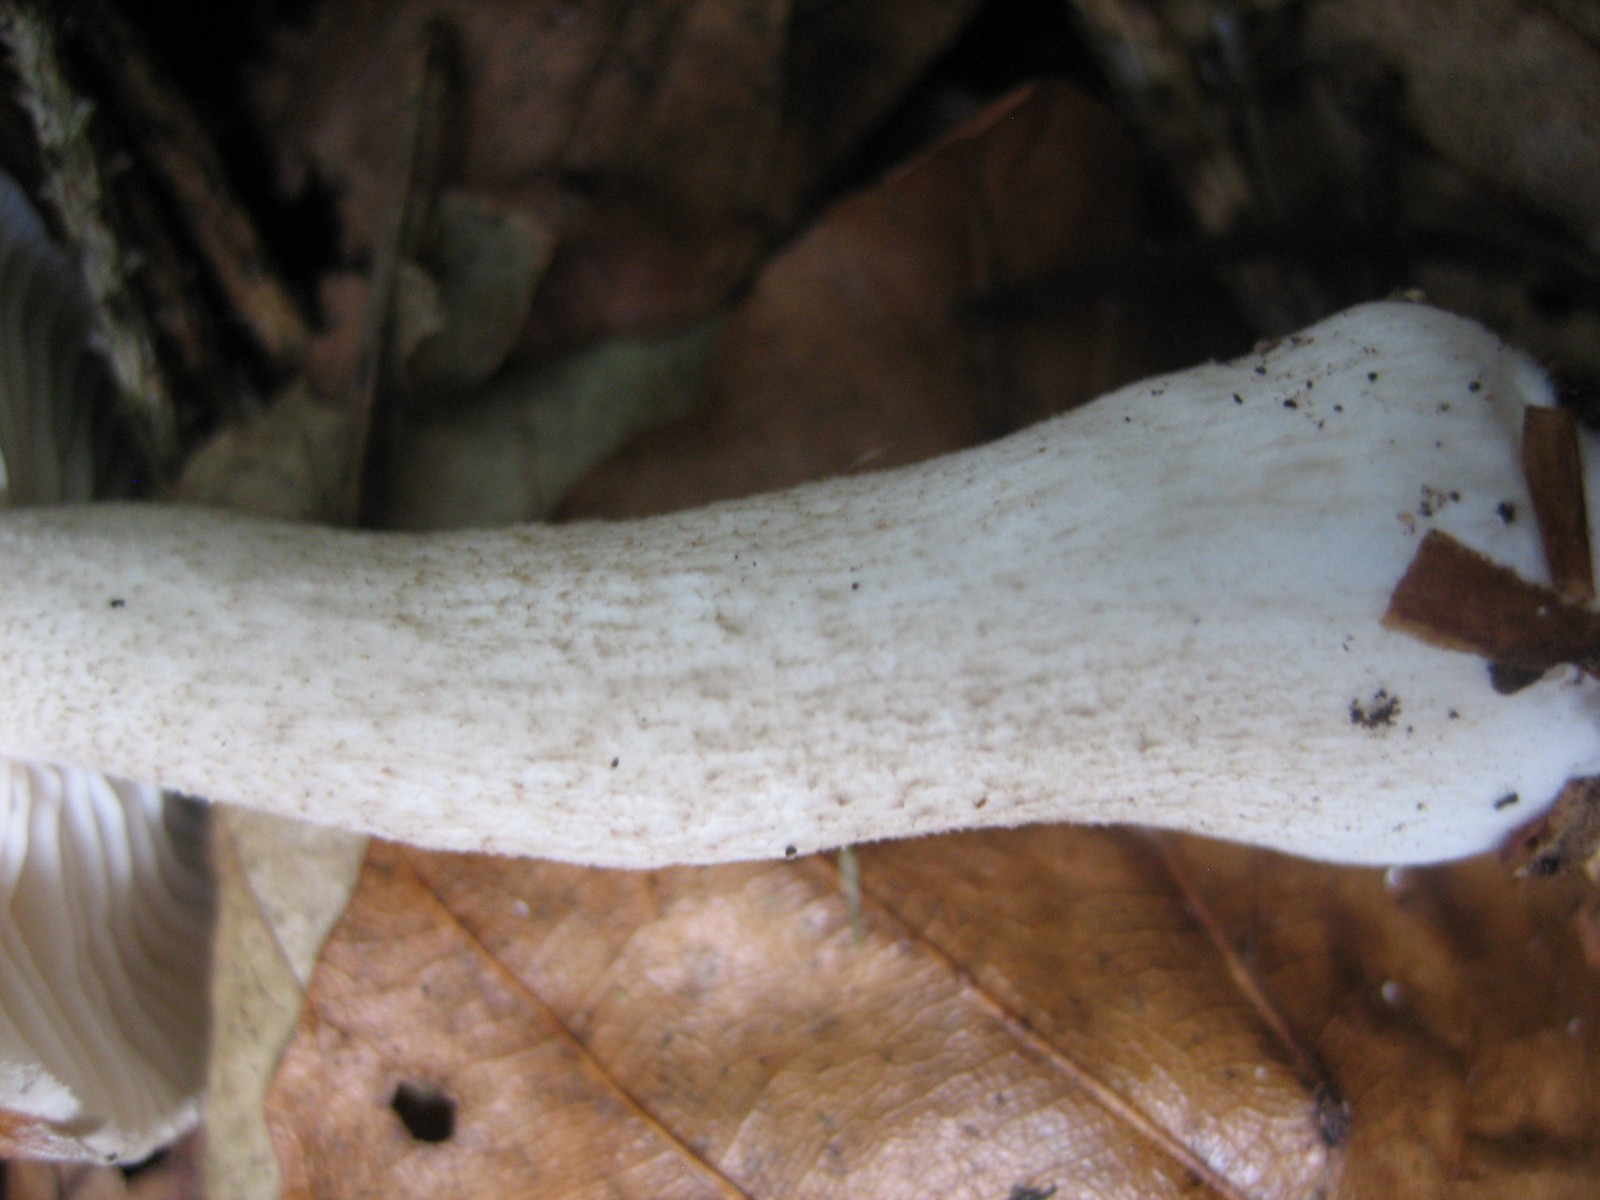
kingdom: Fungi
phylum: Basidiomycota
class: Agaricomycetes
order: Agaricales
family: Hygrophoraceae
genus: Hygrophorus
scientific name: Hygrophorus pustulatus
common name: mørkprikket sneglehat
